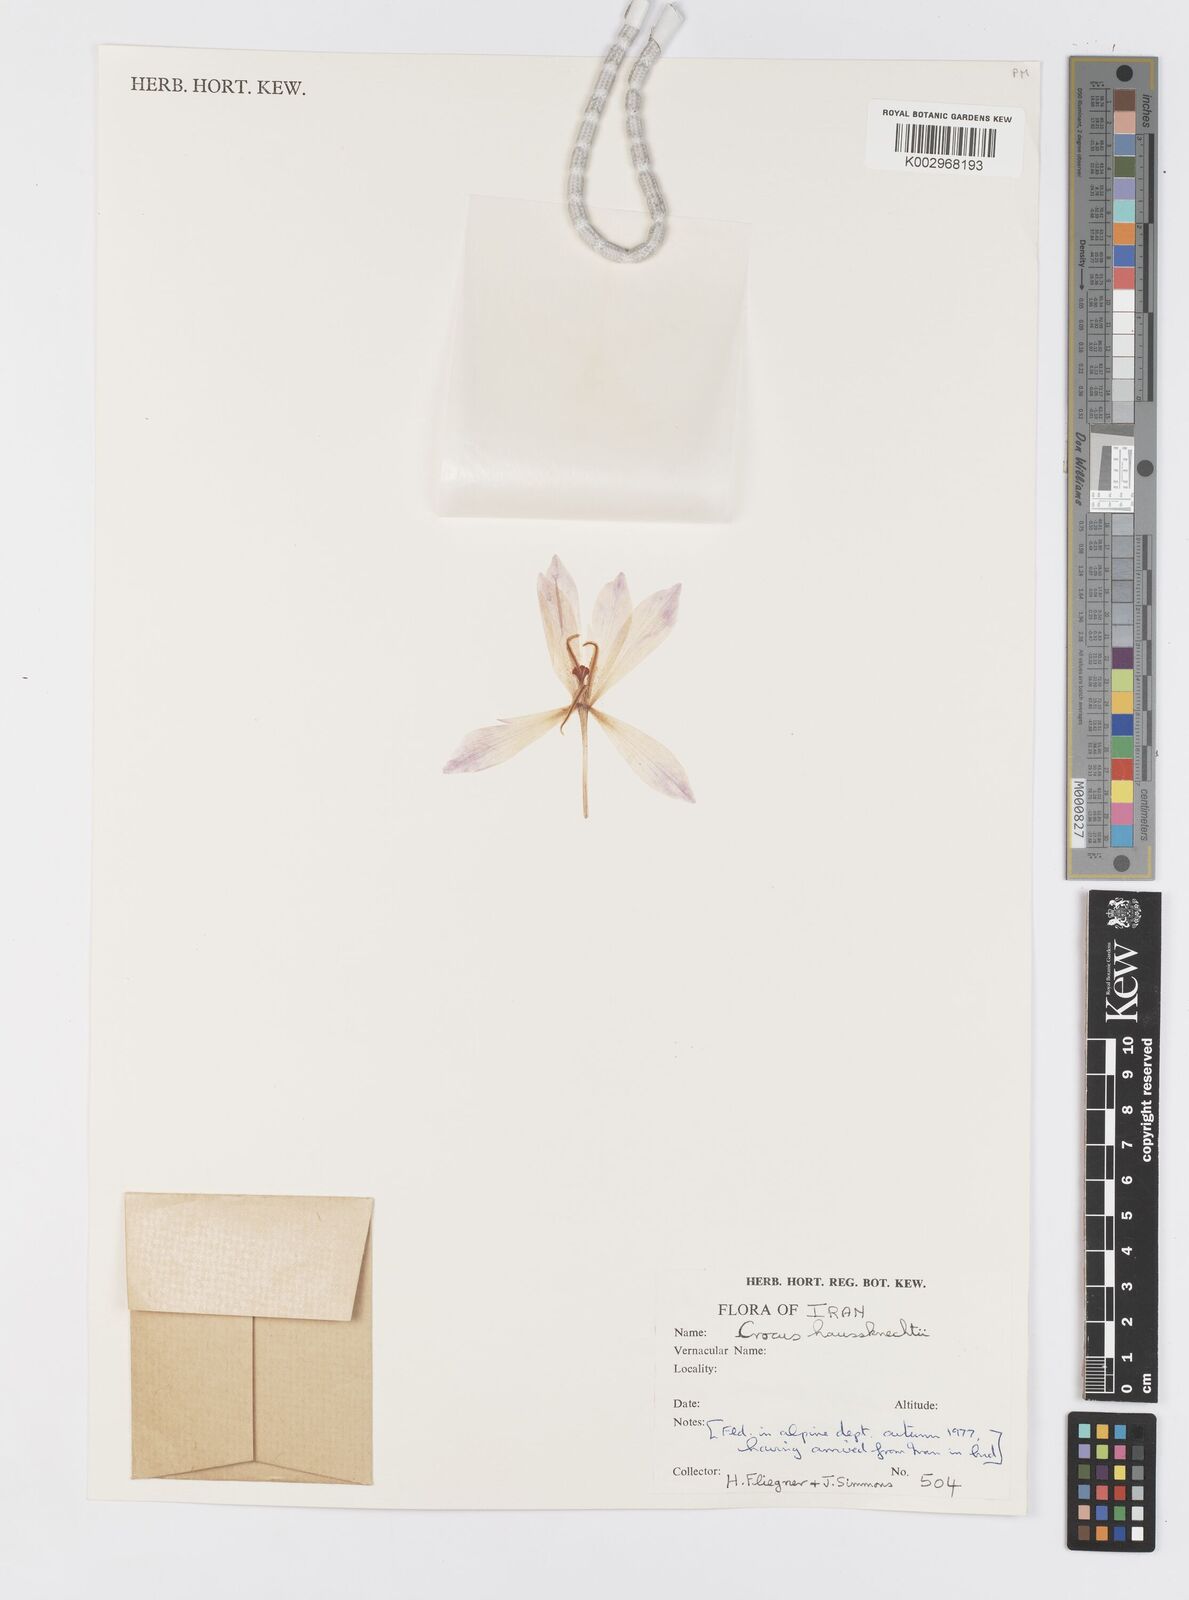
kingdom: Plantae
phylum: Tracheophyta
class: Liliopsida
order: Asparagales
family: Iridaceae
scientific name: Iridaceae
